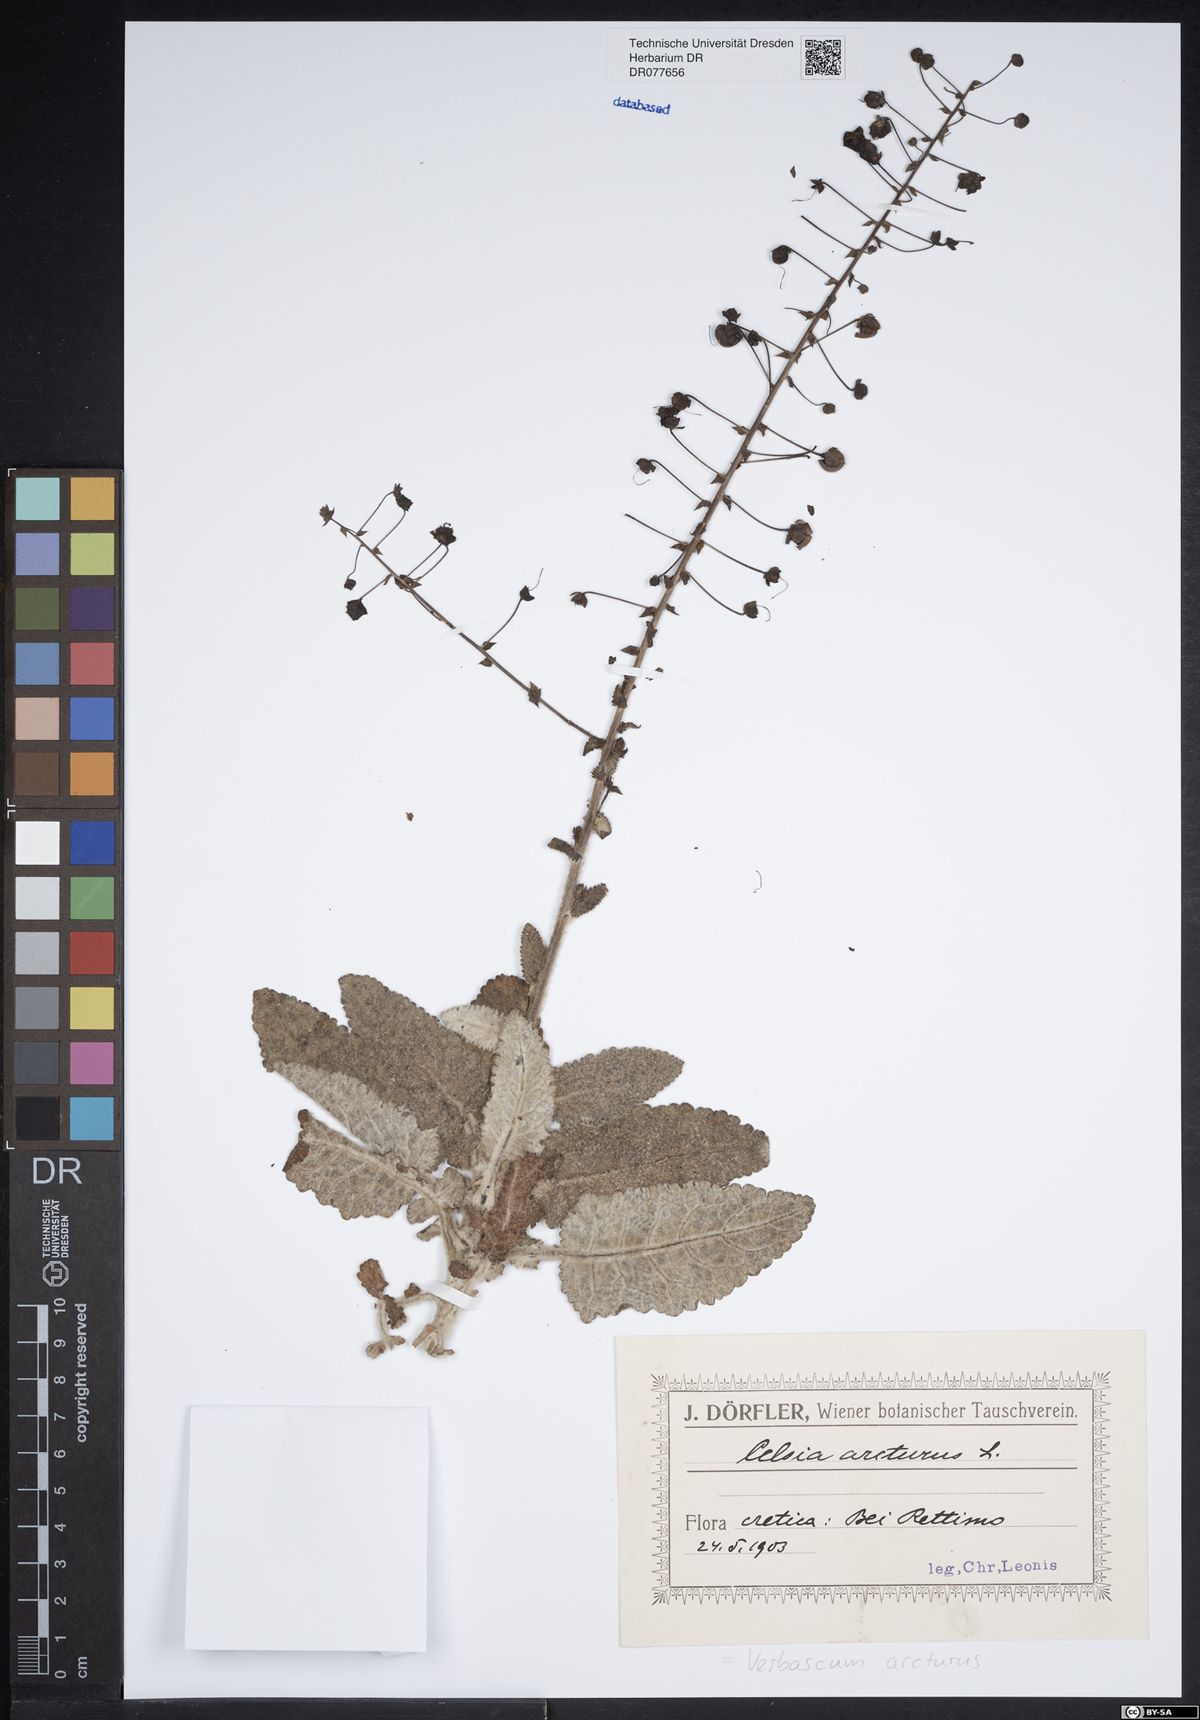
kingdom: Plantae
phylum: Tracheophyta
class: Magnoliopsida
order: Lamiales
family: Scrophulariaceae
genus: Verbascum
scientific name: Verbascum arcturus
